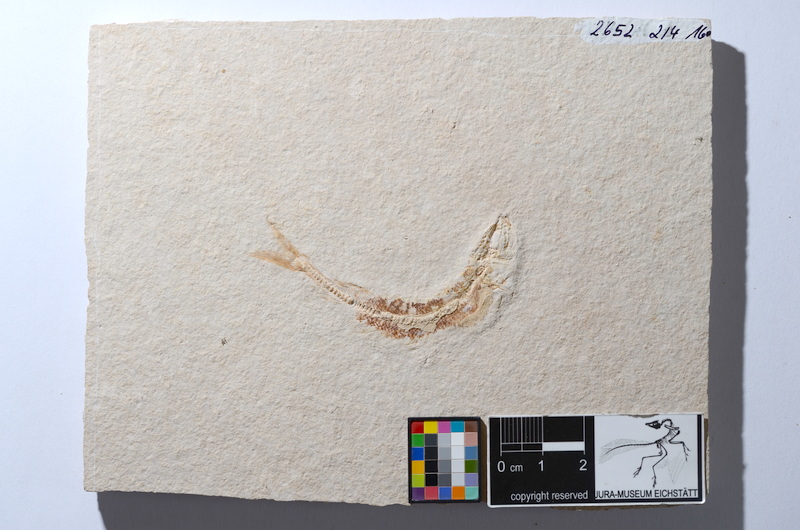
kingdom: Animalia
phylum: Chordata
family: Allothrissopidae
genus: Allothrissops
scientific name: Allothrissops
